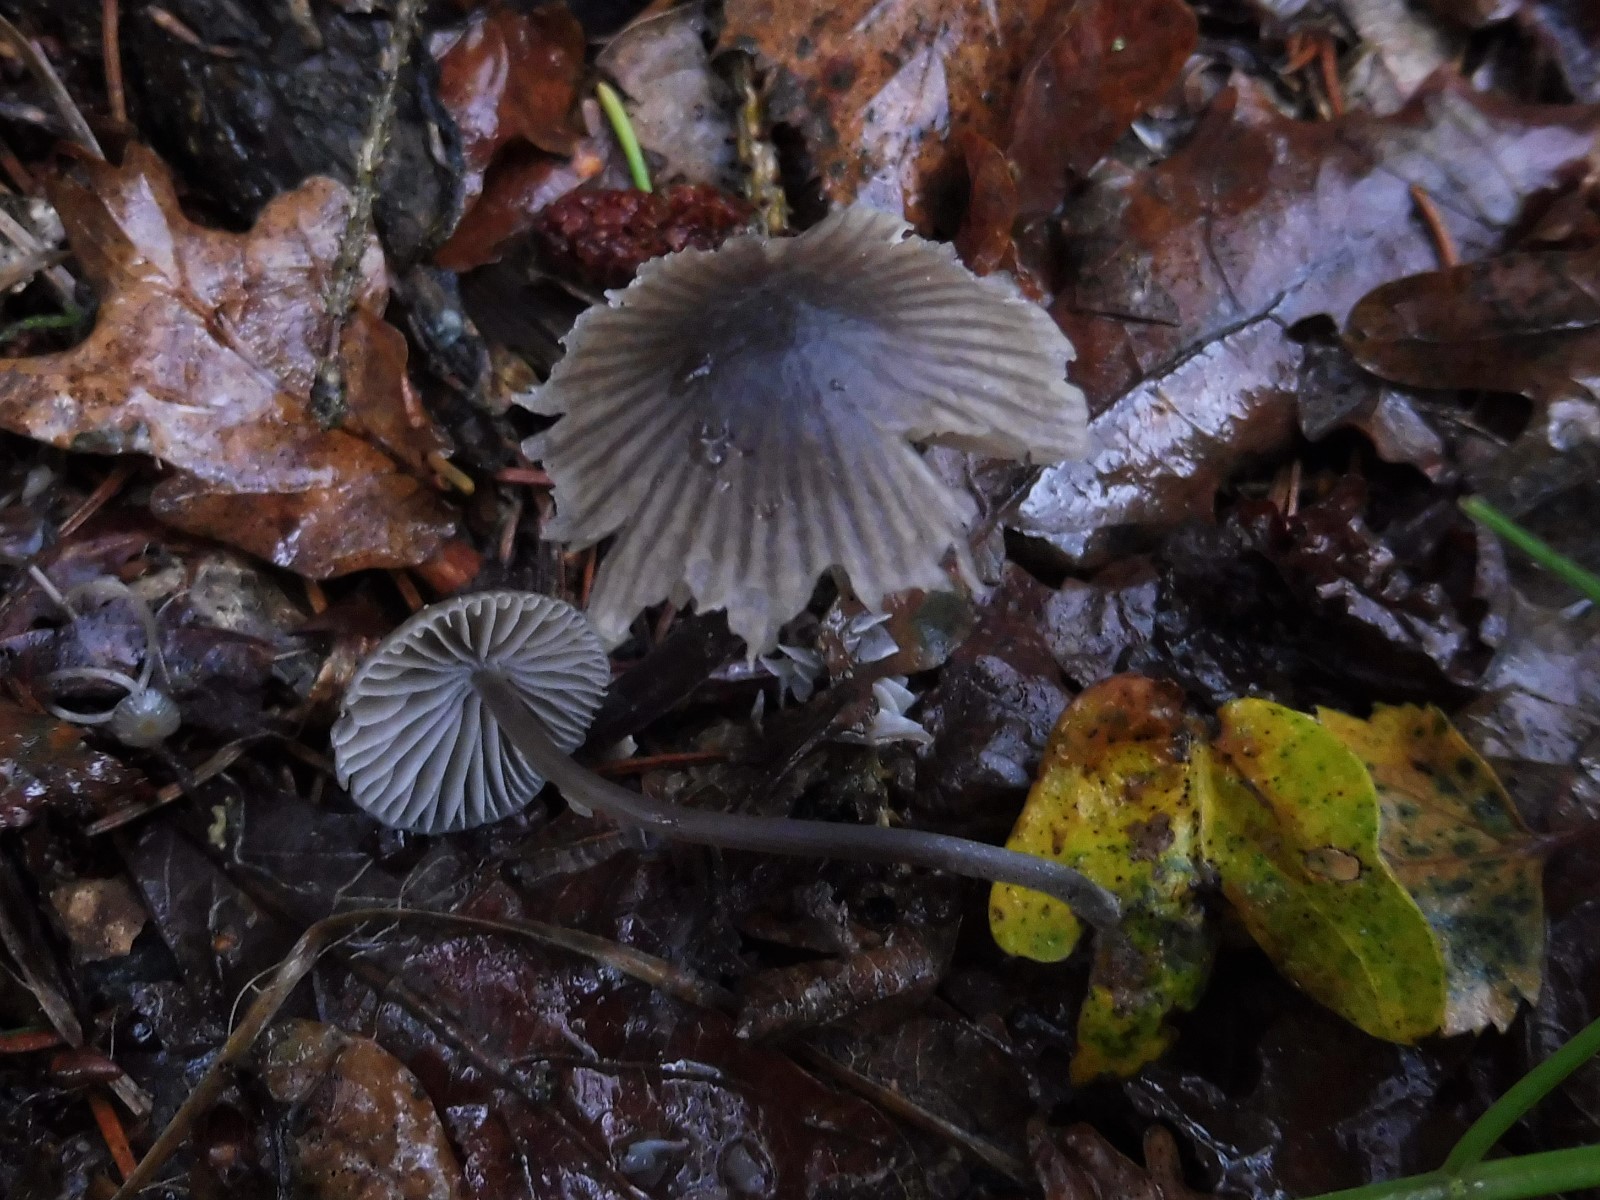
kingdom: Fungi
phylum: Basidiomycota
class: Agaricomycetes
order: Agaricales
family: Mycenaceae
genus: Mycena
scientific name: Mycena leptocephala
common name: klor-huesvamp
